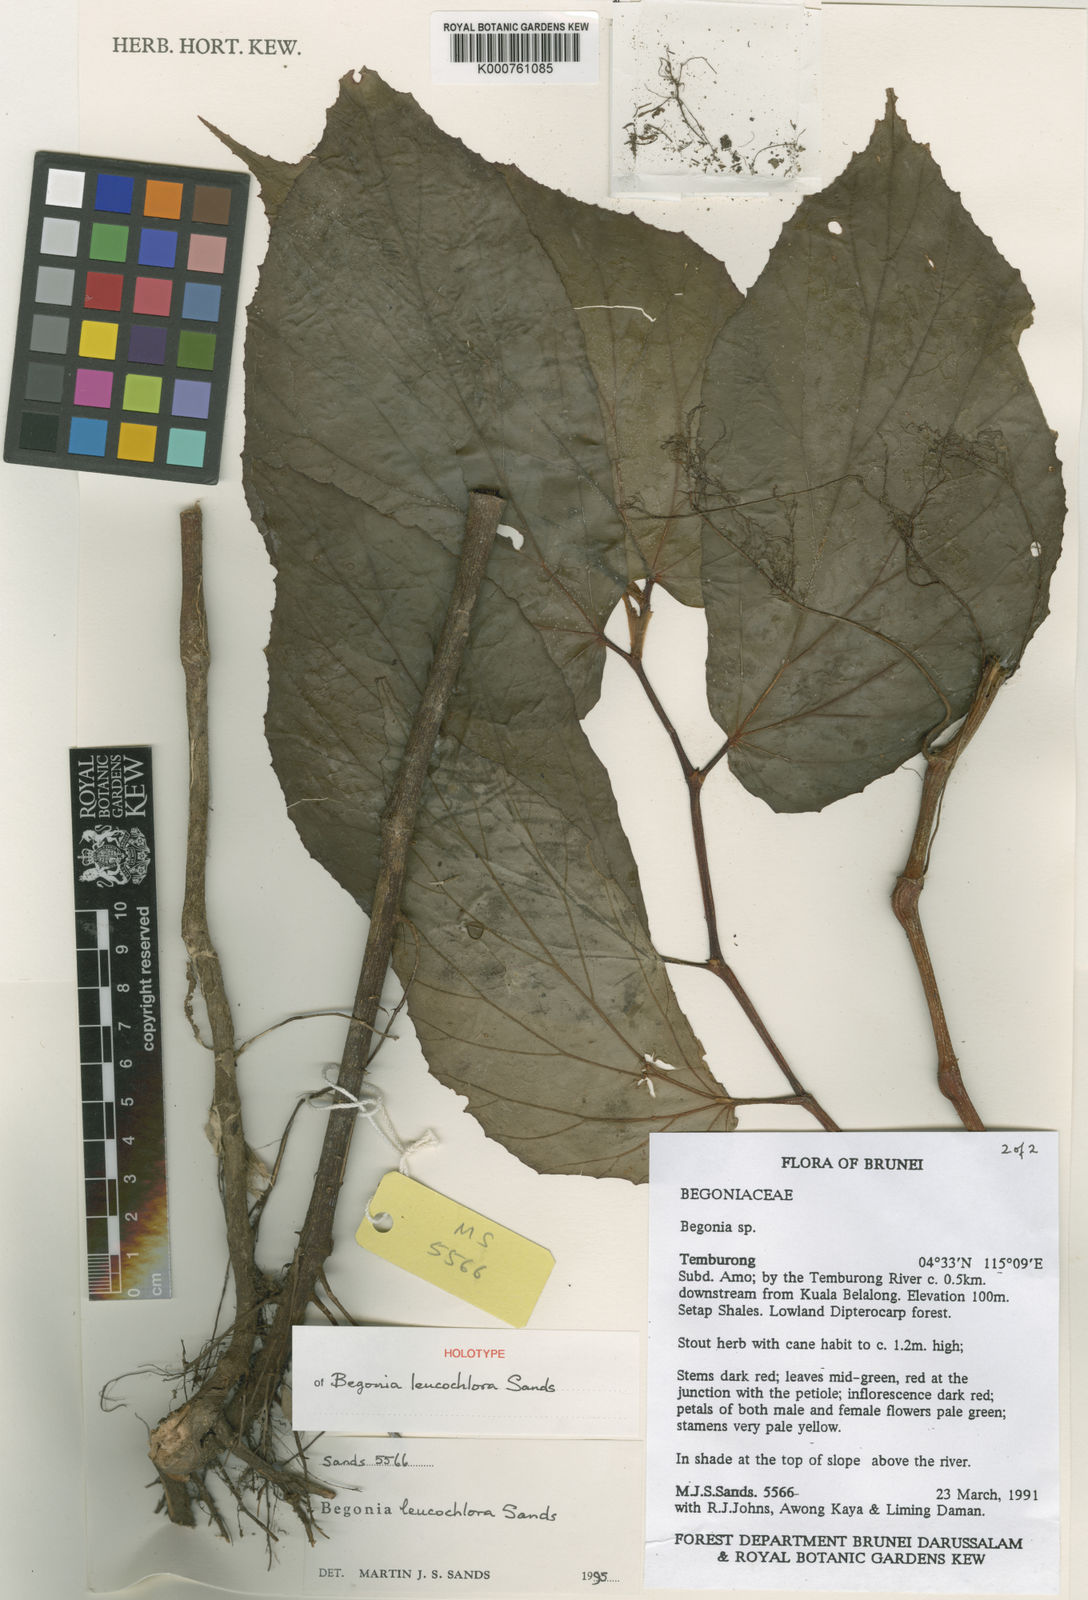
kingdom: Plantae
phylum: Tracheophyta
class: Magnoliopsida
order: Cucurbitales
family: Begoniaceae
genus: Begonia
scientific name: Begonia leucochlora
